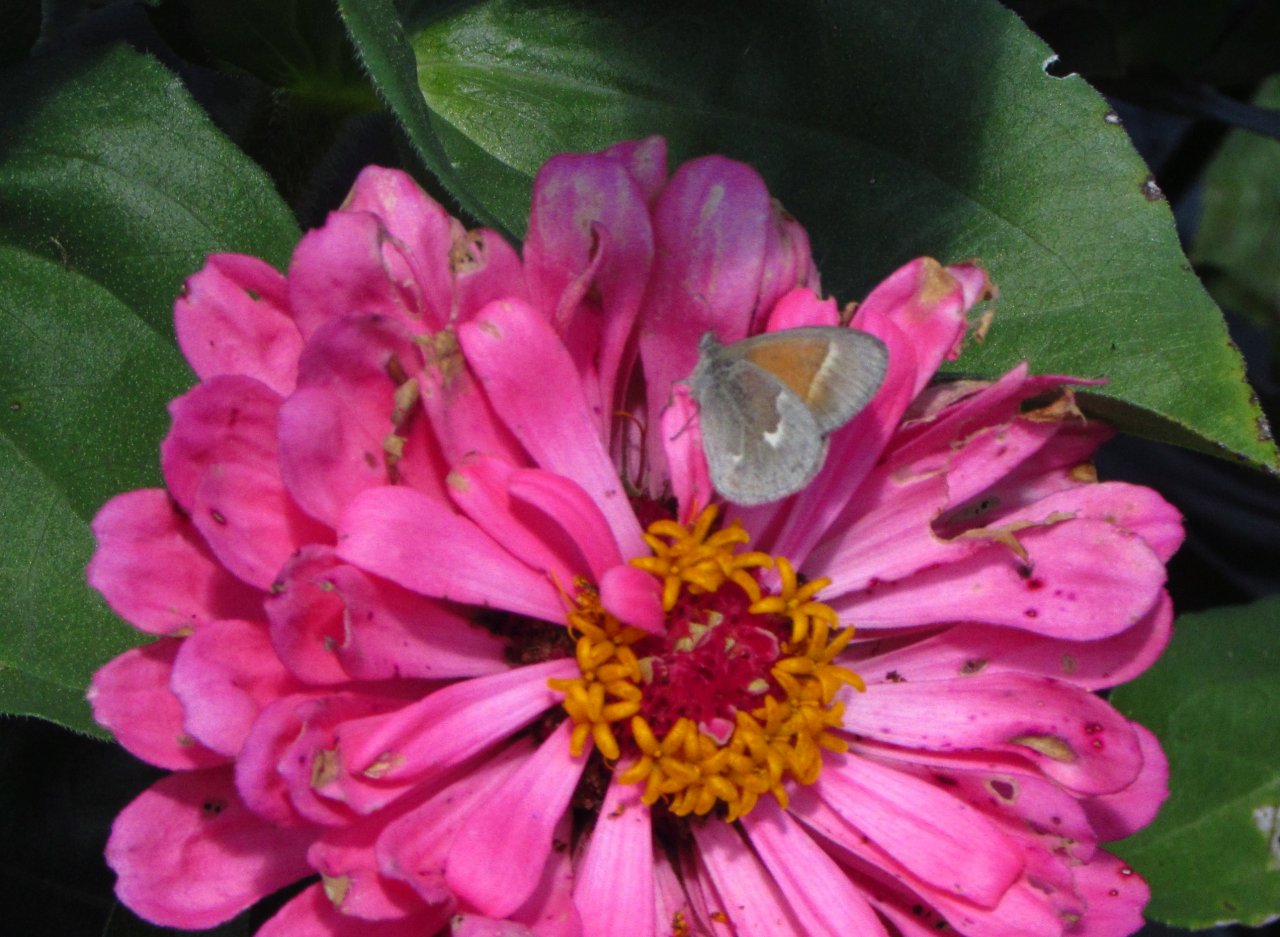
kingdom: Animalia
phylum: Arthropoda
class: Insecta
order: Lepidoptera
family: Nymphalidae
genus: Coenonympha
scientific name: Coenonympha tullia
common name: Large Heath
